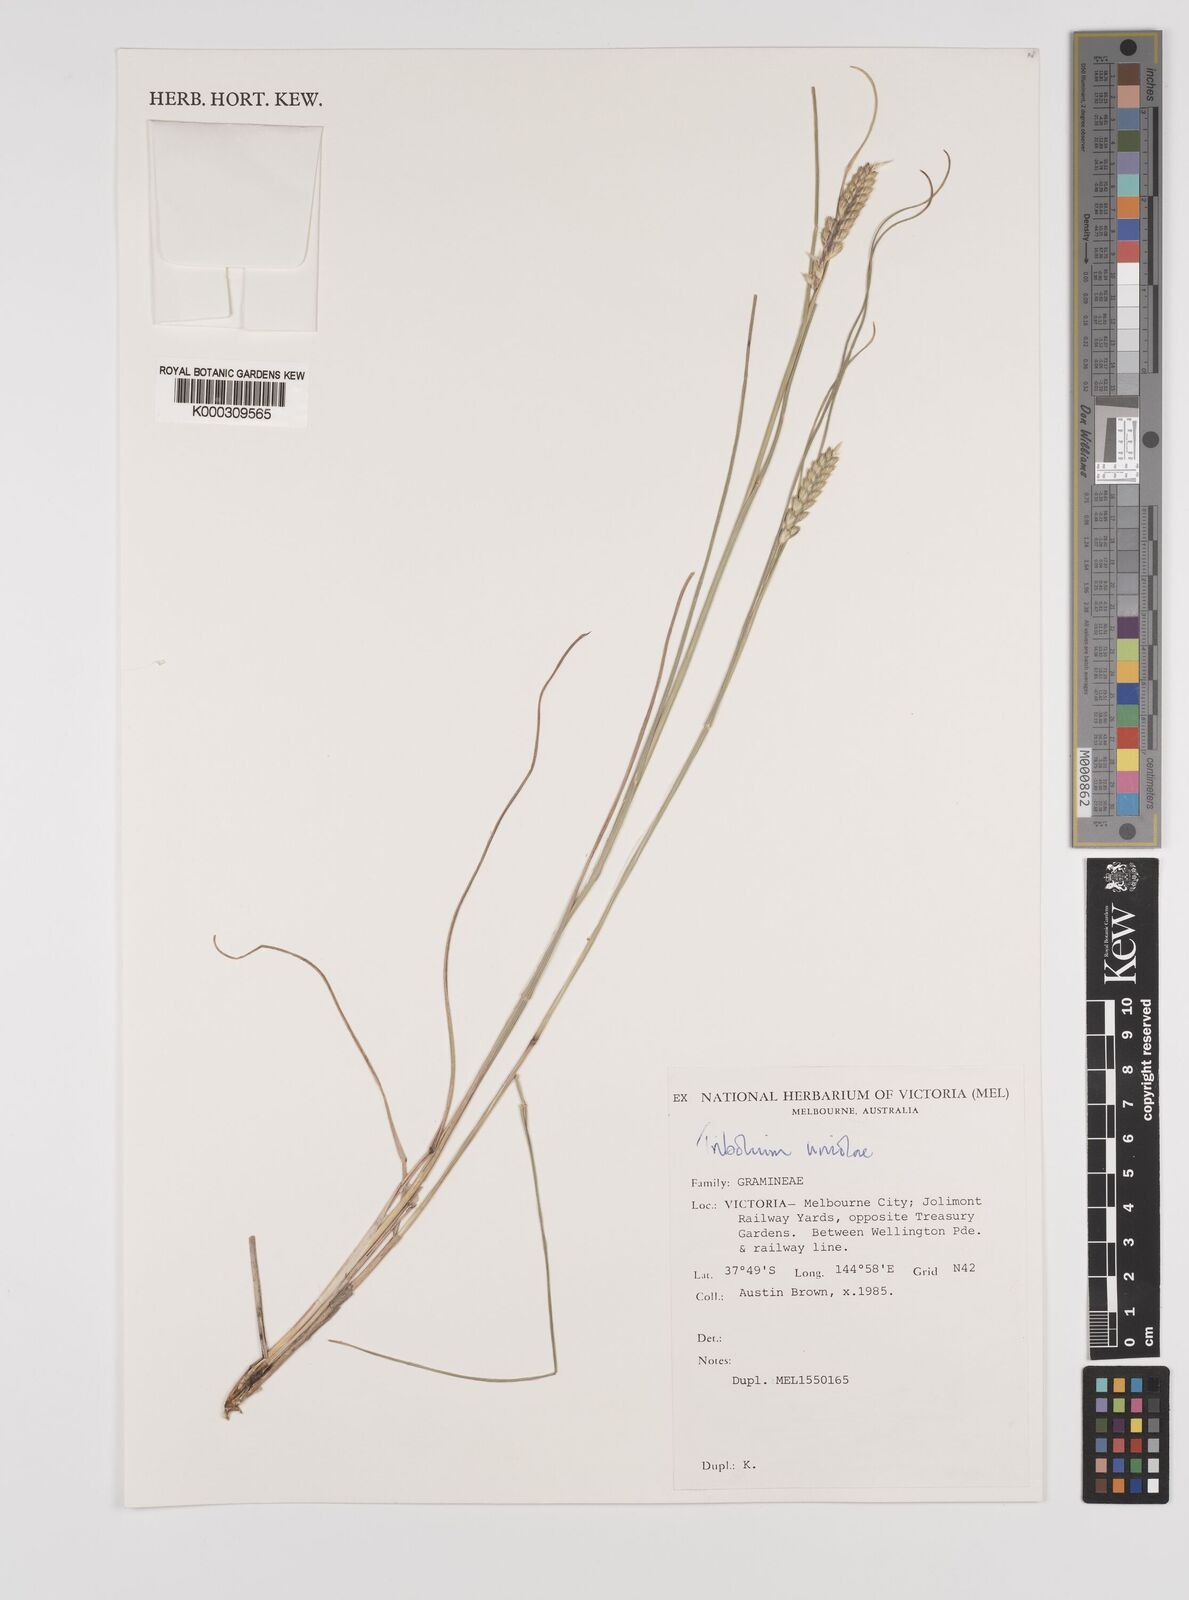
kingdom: Plantae
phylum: Tracheophyta
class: Liliopsida
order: Poales
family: Poaceae
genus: Tribolium
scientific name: Tribolium uniolae
